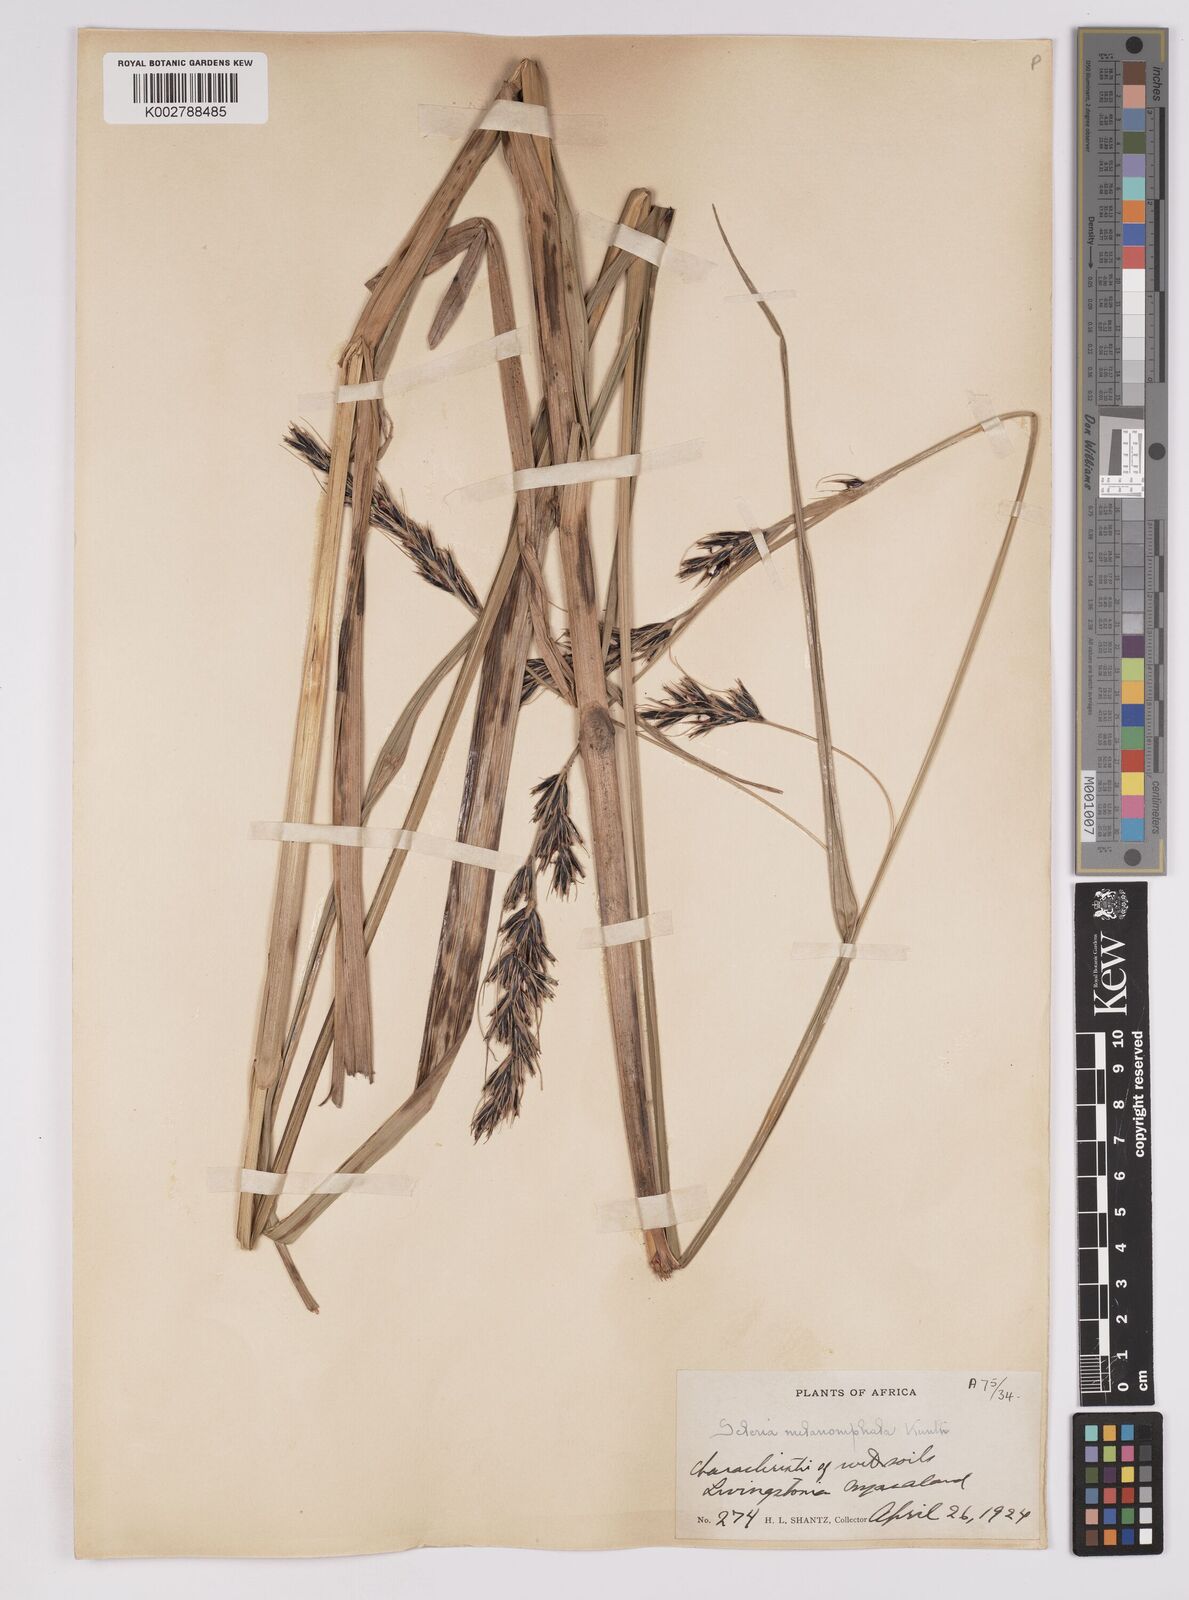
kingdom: Plantae
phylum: Tracheophyta
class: Liliopsida
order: Poales
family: Cyperaceae
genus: Scleria
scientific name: Scleria melanomphala
